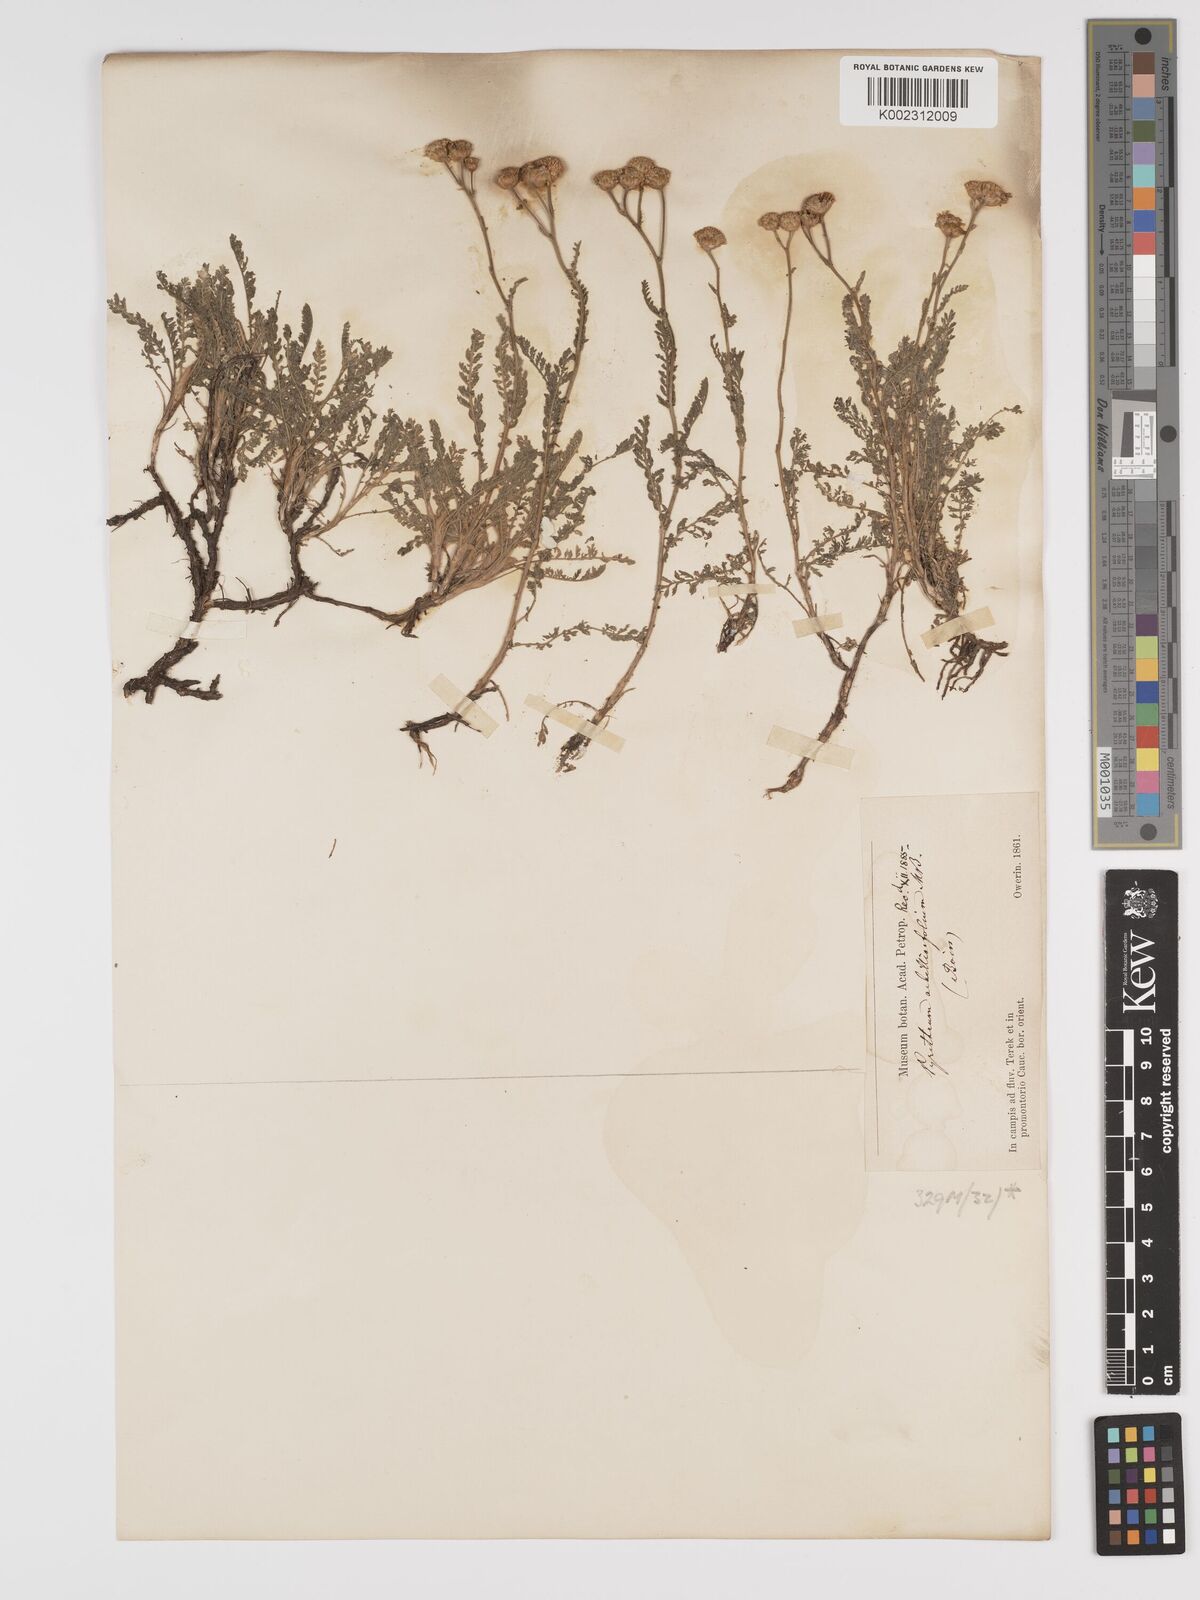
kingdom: Plantae
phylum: Tracheophyta
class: Magnoliopsida
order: Asterales
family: Asteraceae
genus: Tanacetum
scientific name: Tanacetum achilleifolium
